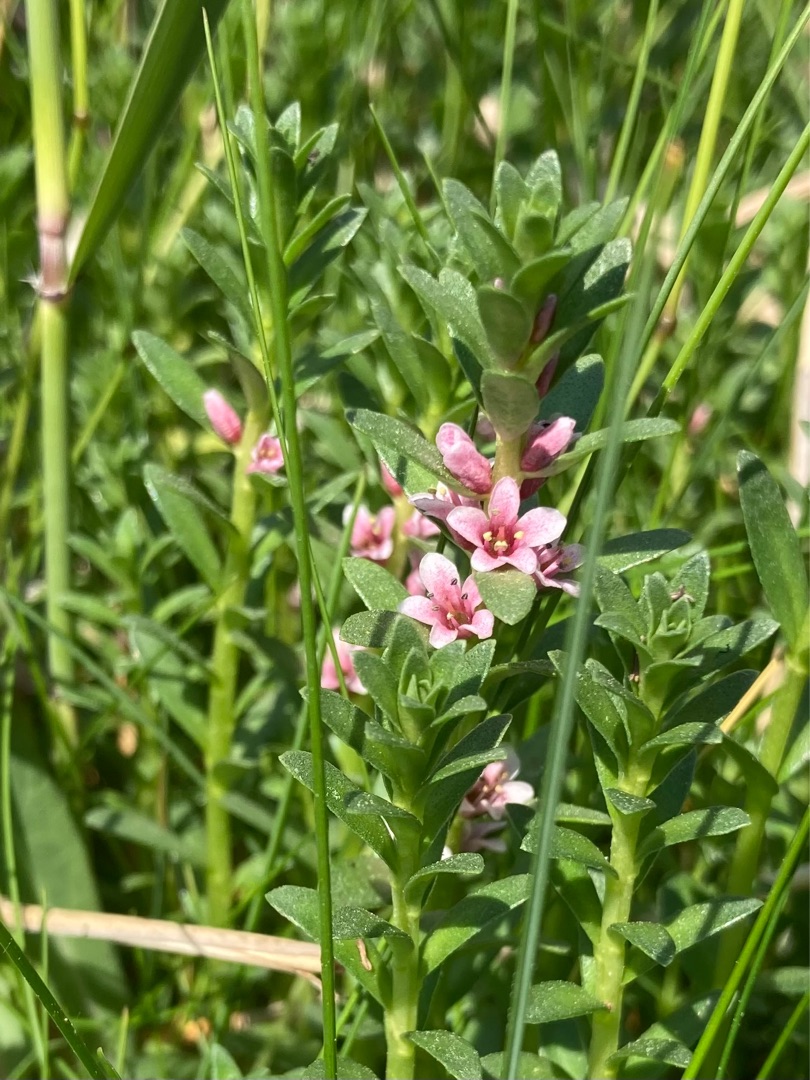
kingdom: Plantae
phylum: Tracheophyta
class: Magnoliopsida
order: Ericales
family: Primulaceae
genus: Lysimachia
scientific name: Lysimachia maritima
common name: Sandkryb
